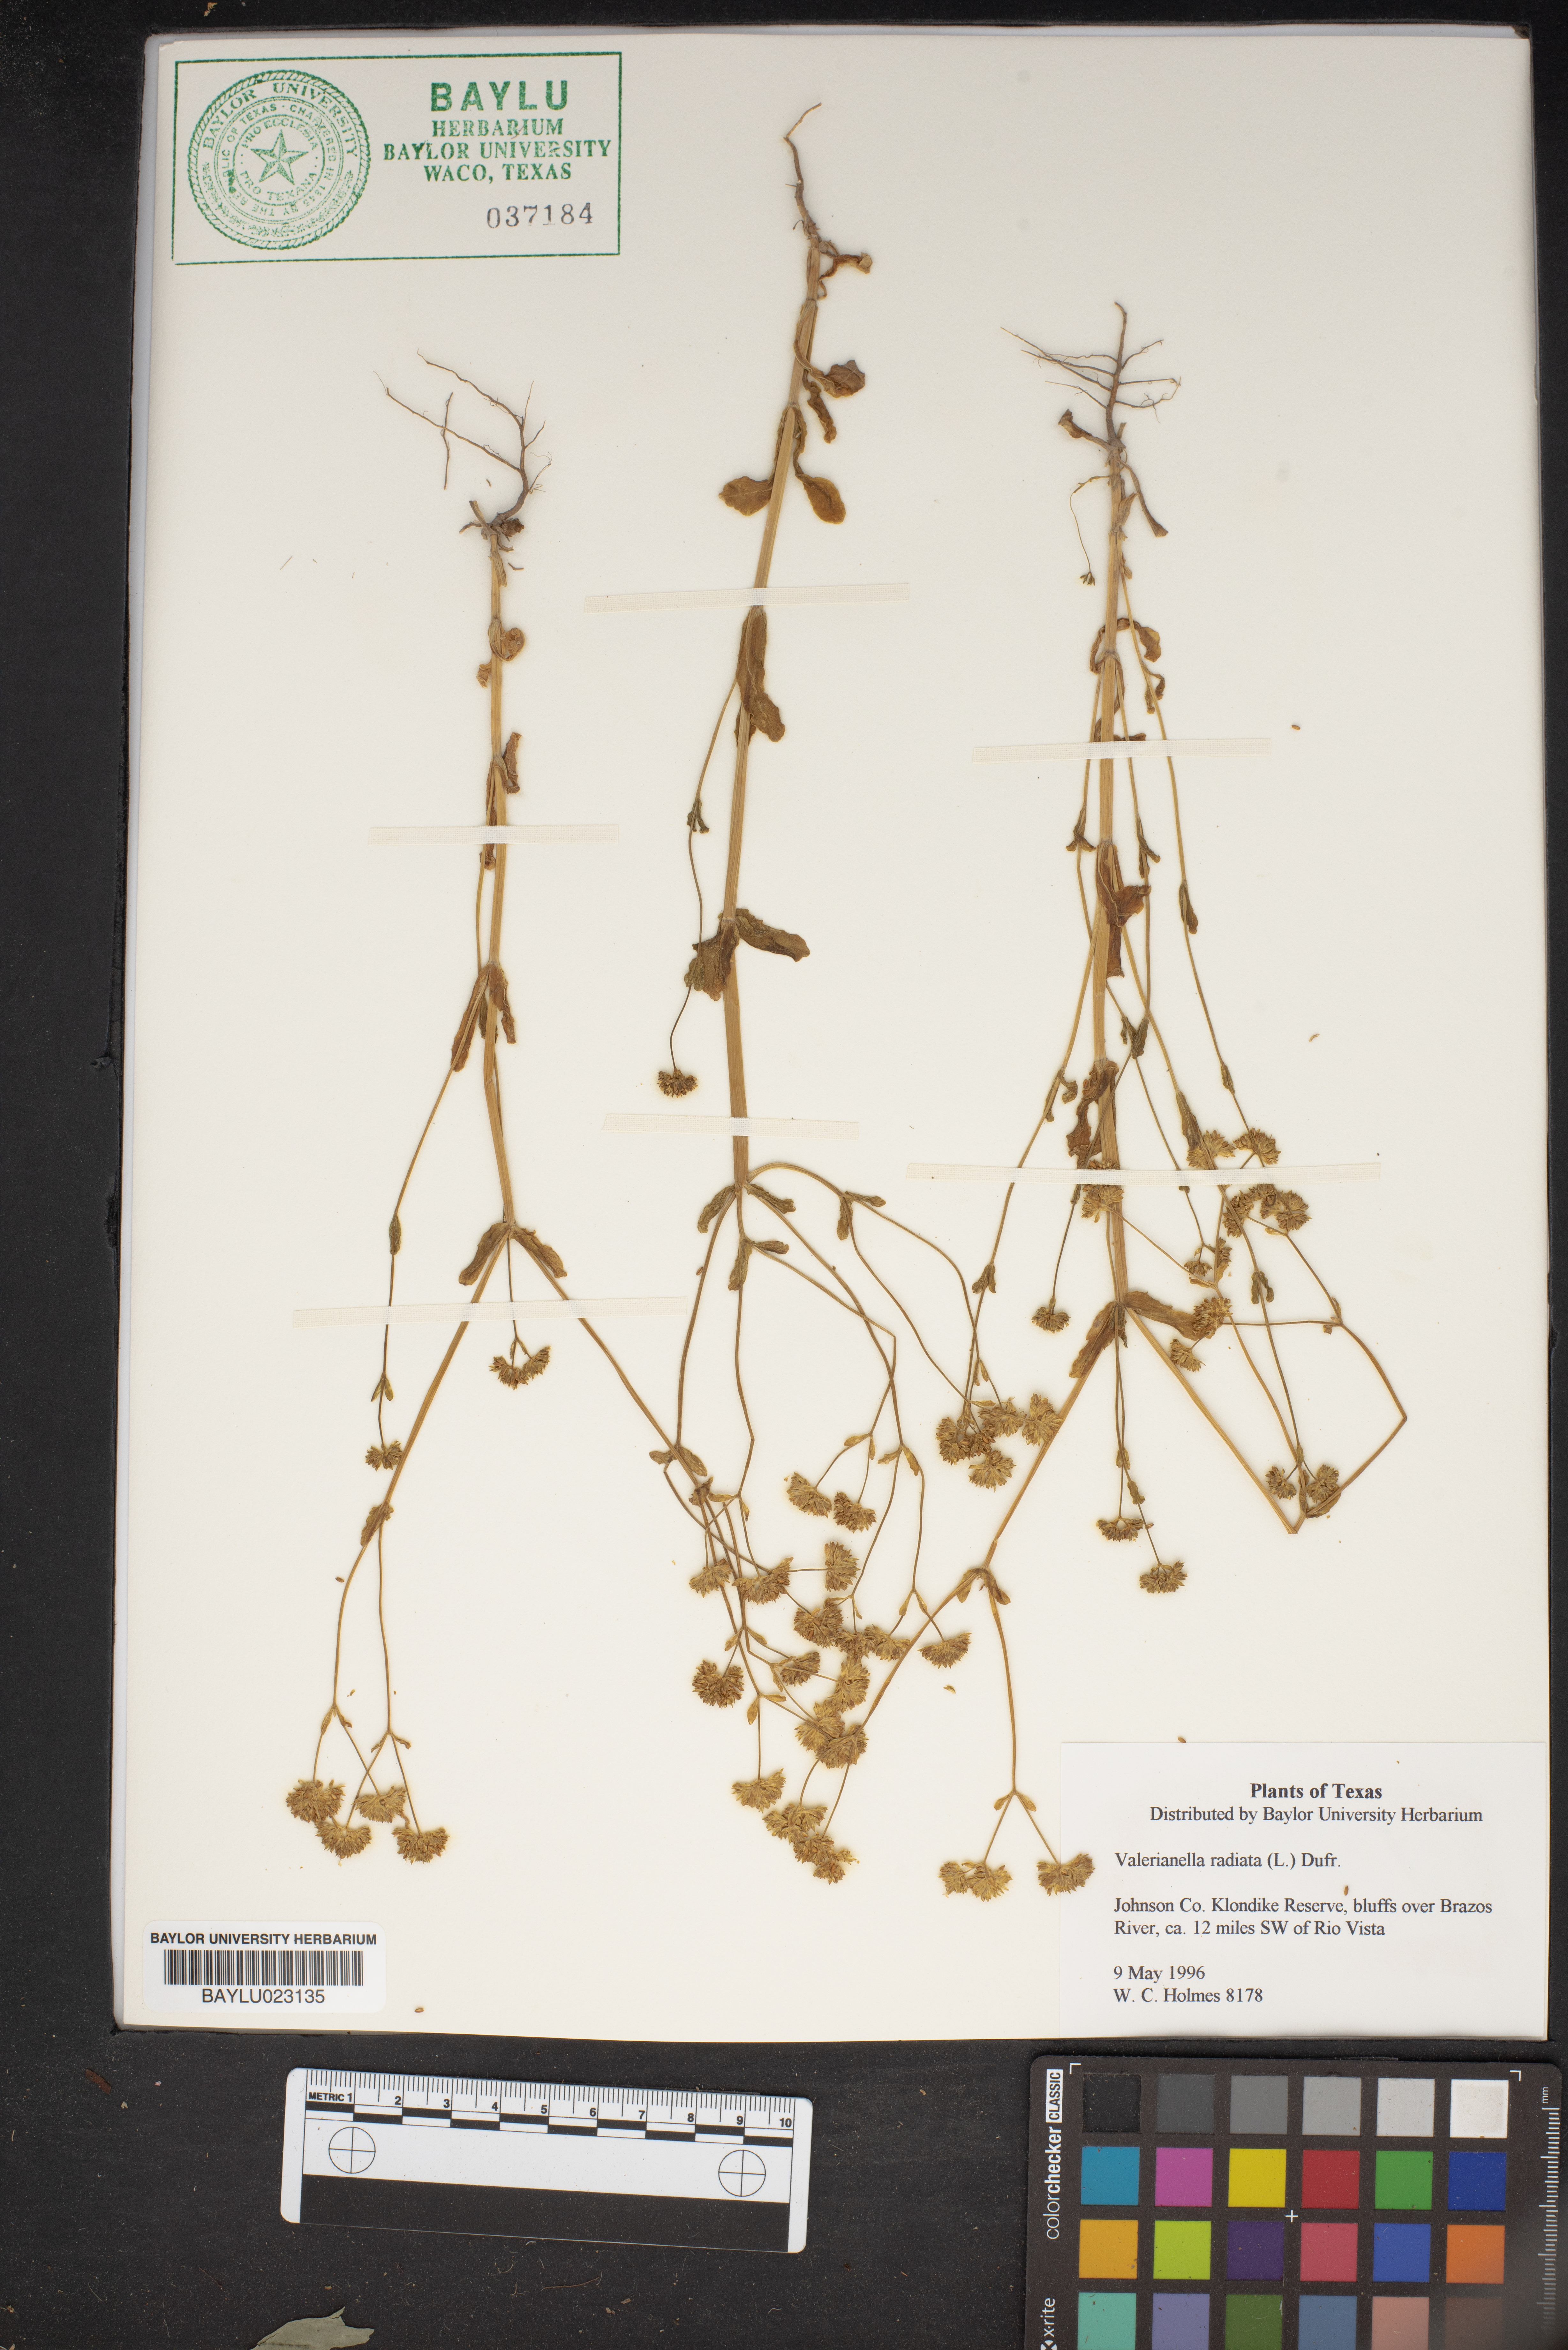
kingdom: Plantae
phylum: Tracheophyta
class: Magnoliopsida
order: Dipsacales
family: Caprifoliaceae
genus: Valerianella
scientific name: Valerianella radiata
